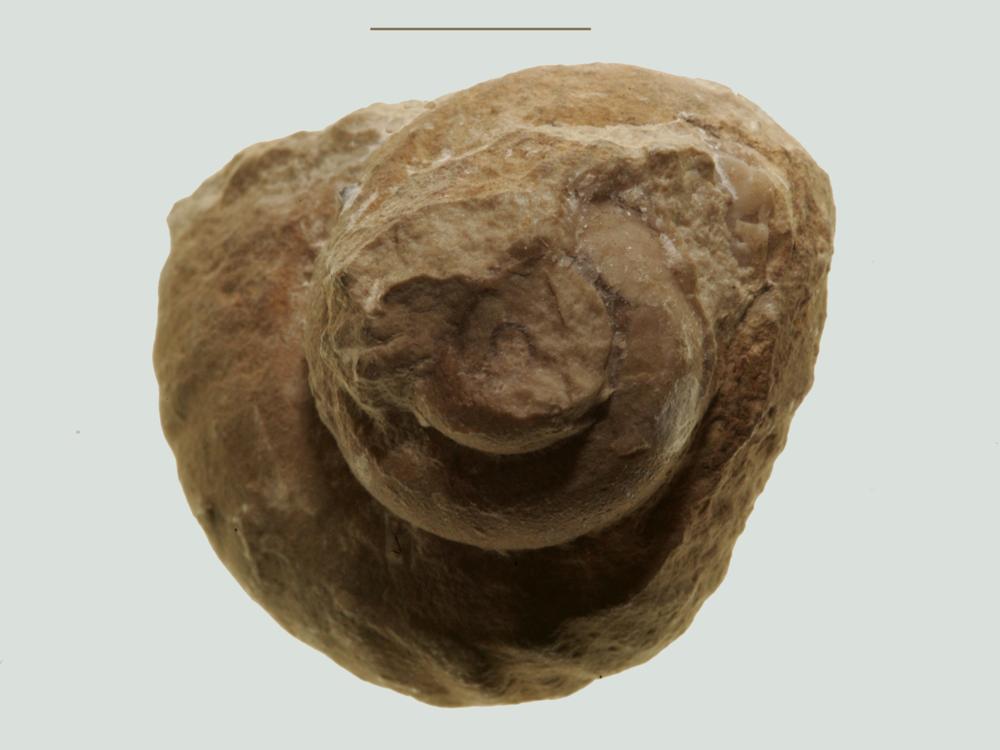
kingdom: Animalia
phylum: Mollusca
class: Gastropoda
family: Holopeidae
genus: Holopea
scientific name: Holopea Turbo balticus
